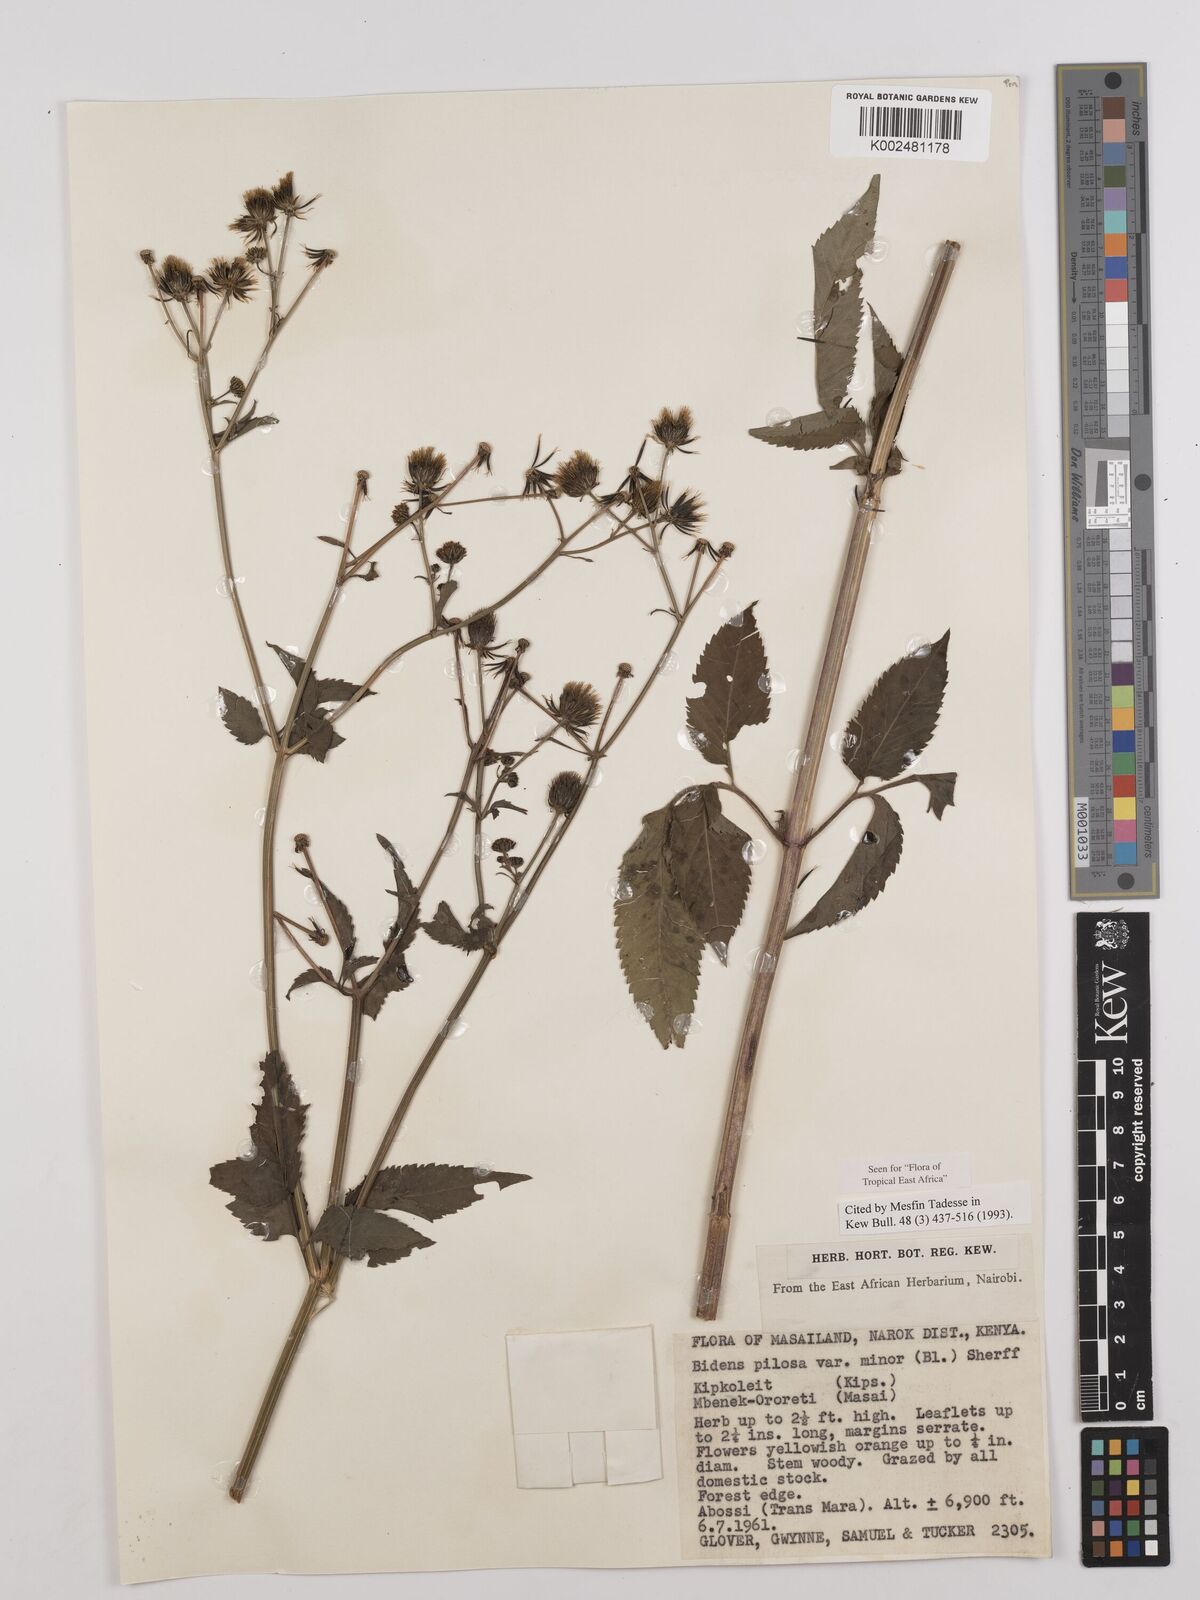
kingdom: Plantae
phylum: Tracheophyta
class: Magnoliopsida
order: Asterales
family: Asteraceae
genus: Bidens
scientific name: Bidens pilosa
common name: Black-jack
